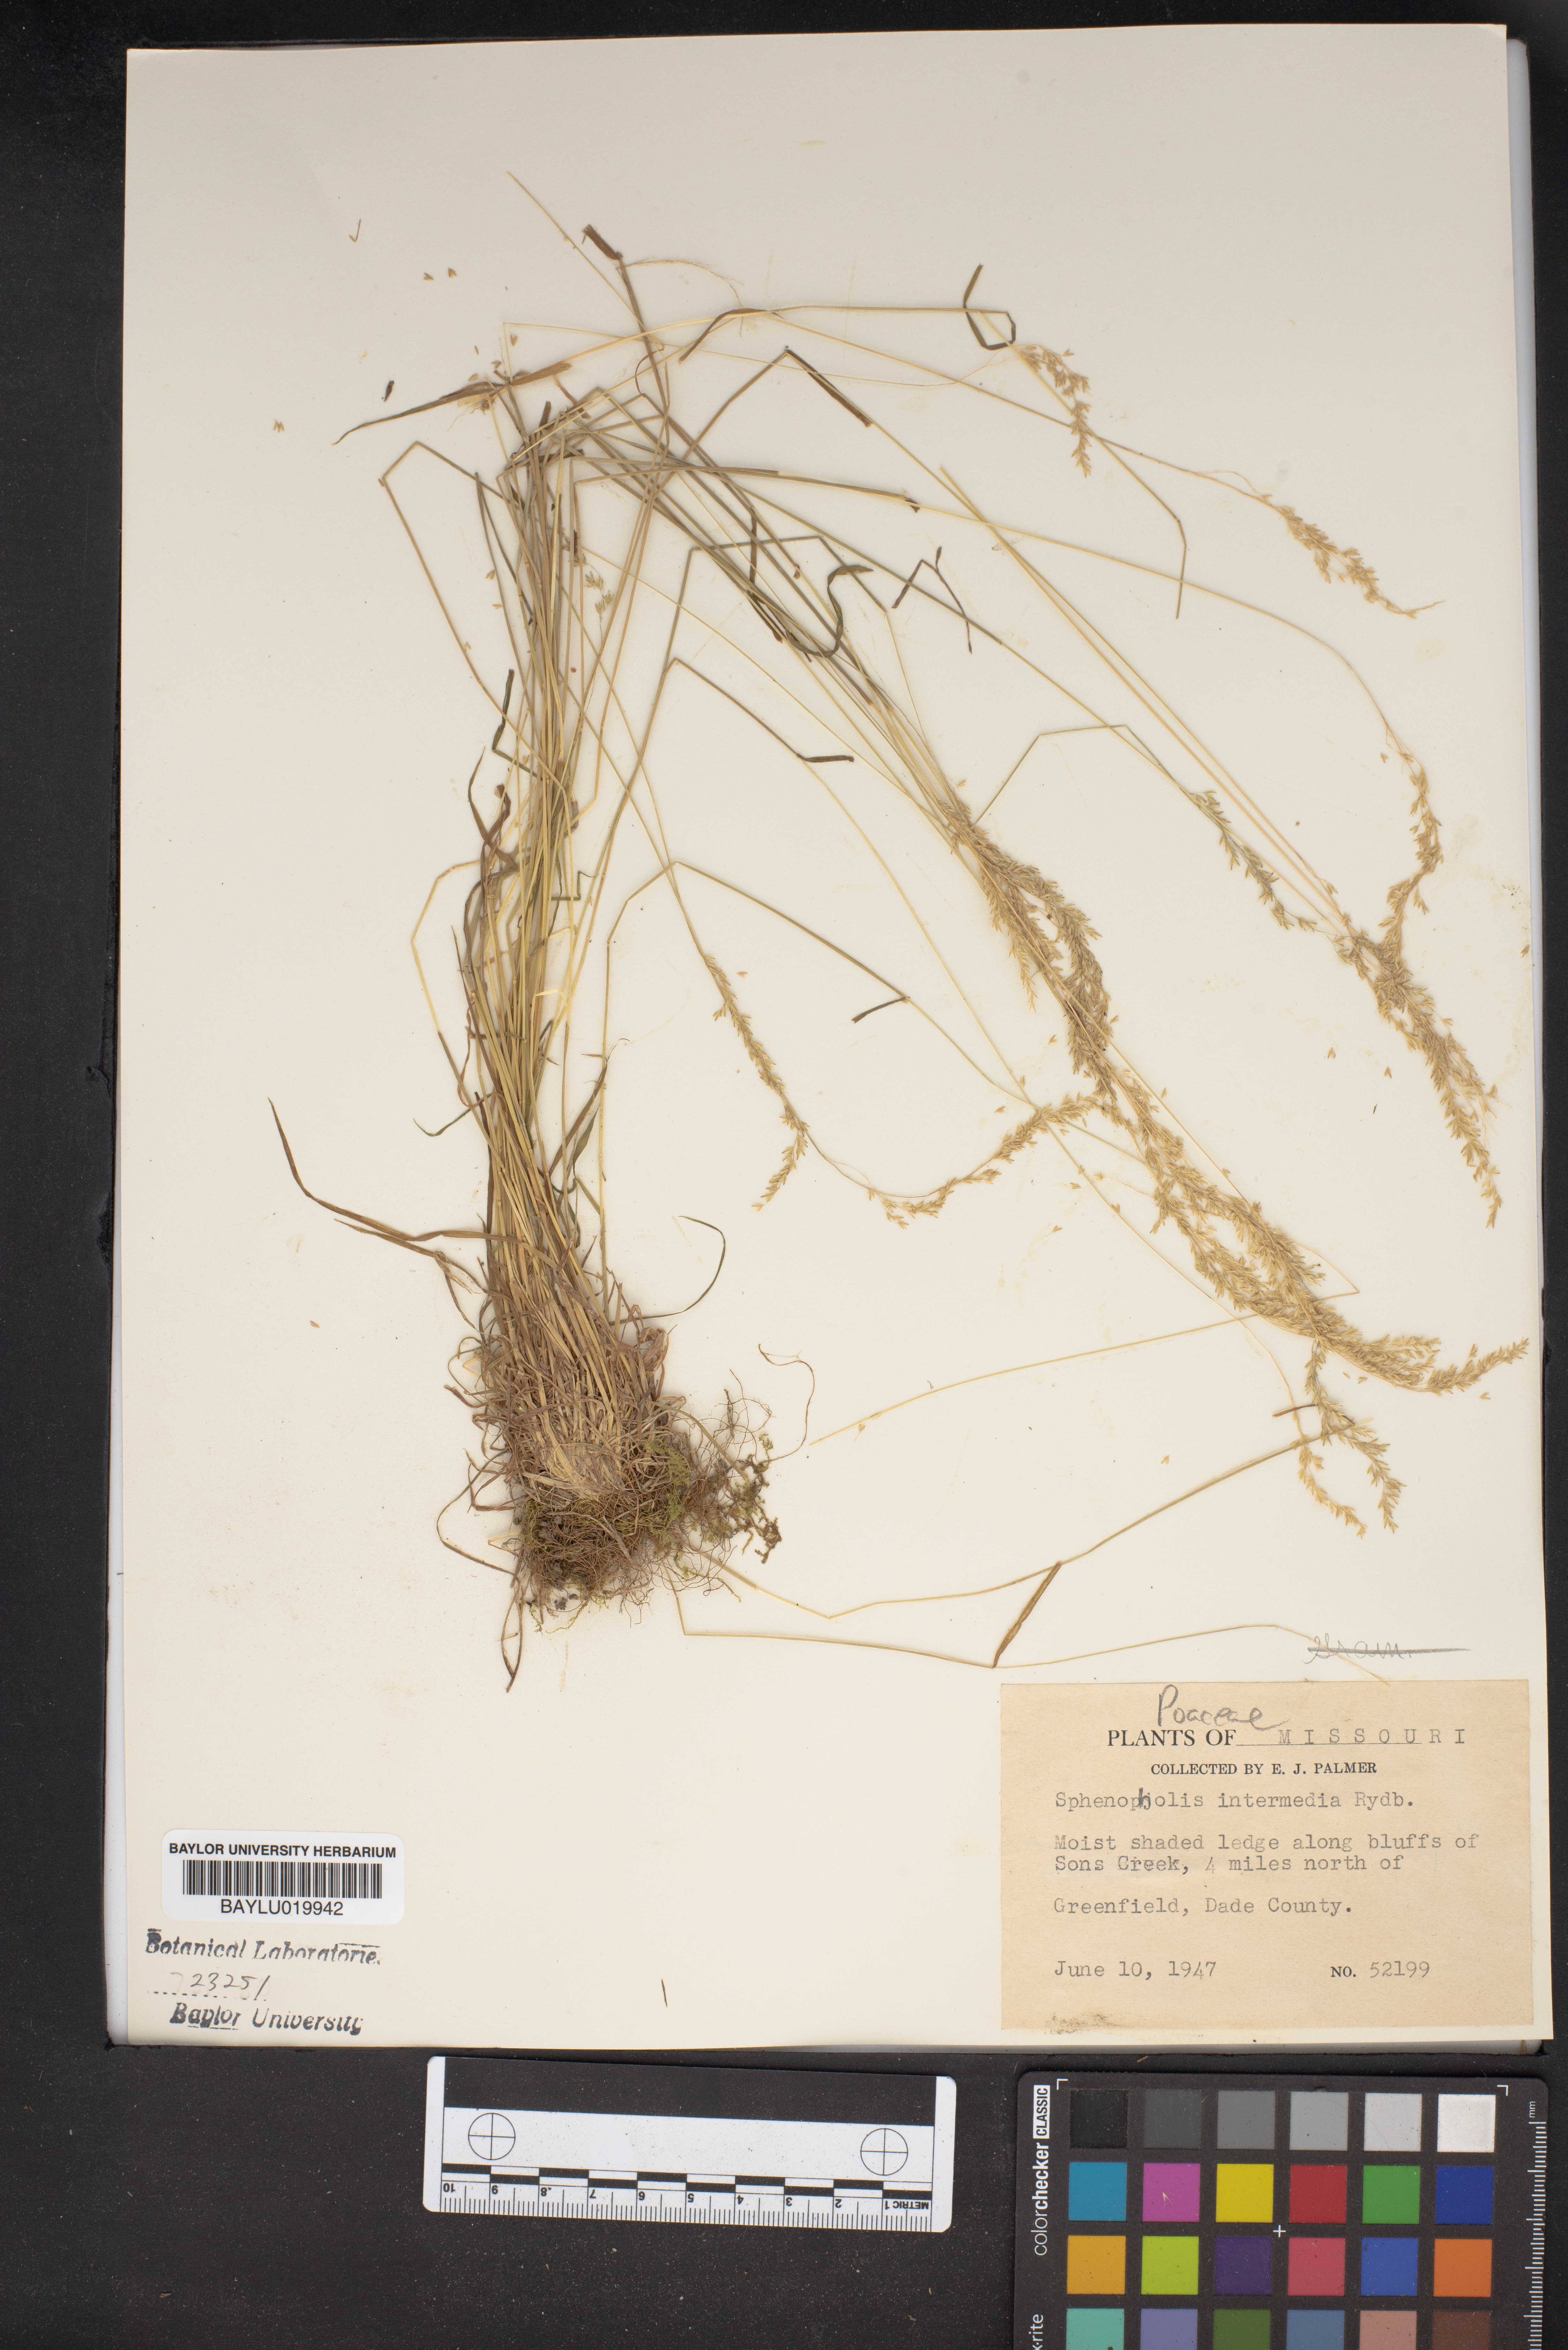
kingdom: Plantae
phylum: Tracheophyta
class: Liliopsida
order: Poales
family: Poaceae
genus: Sphenopholis
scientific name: Sphenopholis intermedia
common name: Intermediate eaton's grass
